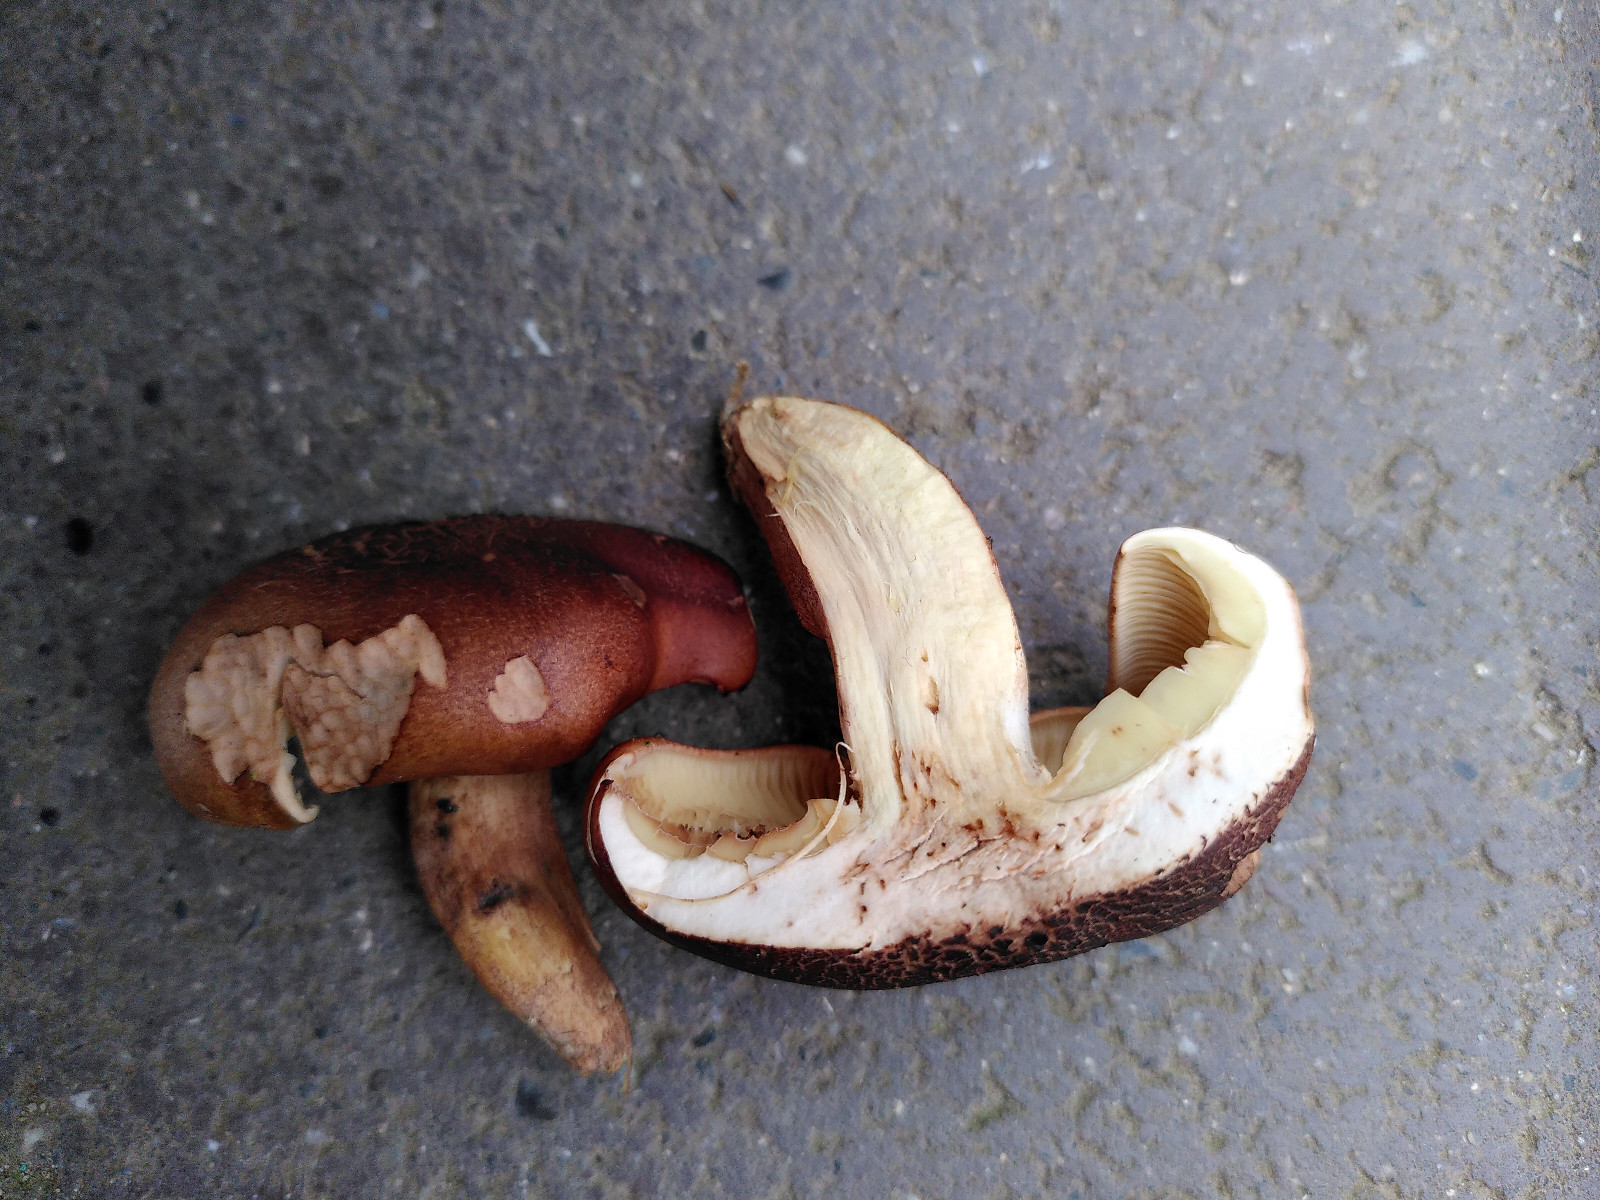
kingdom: Fungi
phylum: Basidiomycota
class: Agaricomycetes
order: Agaricales
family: Tricholomataceae
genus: Tricholoma
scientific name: Tricholoma fulvum
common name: birke-ridderhat
